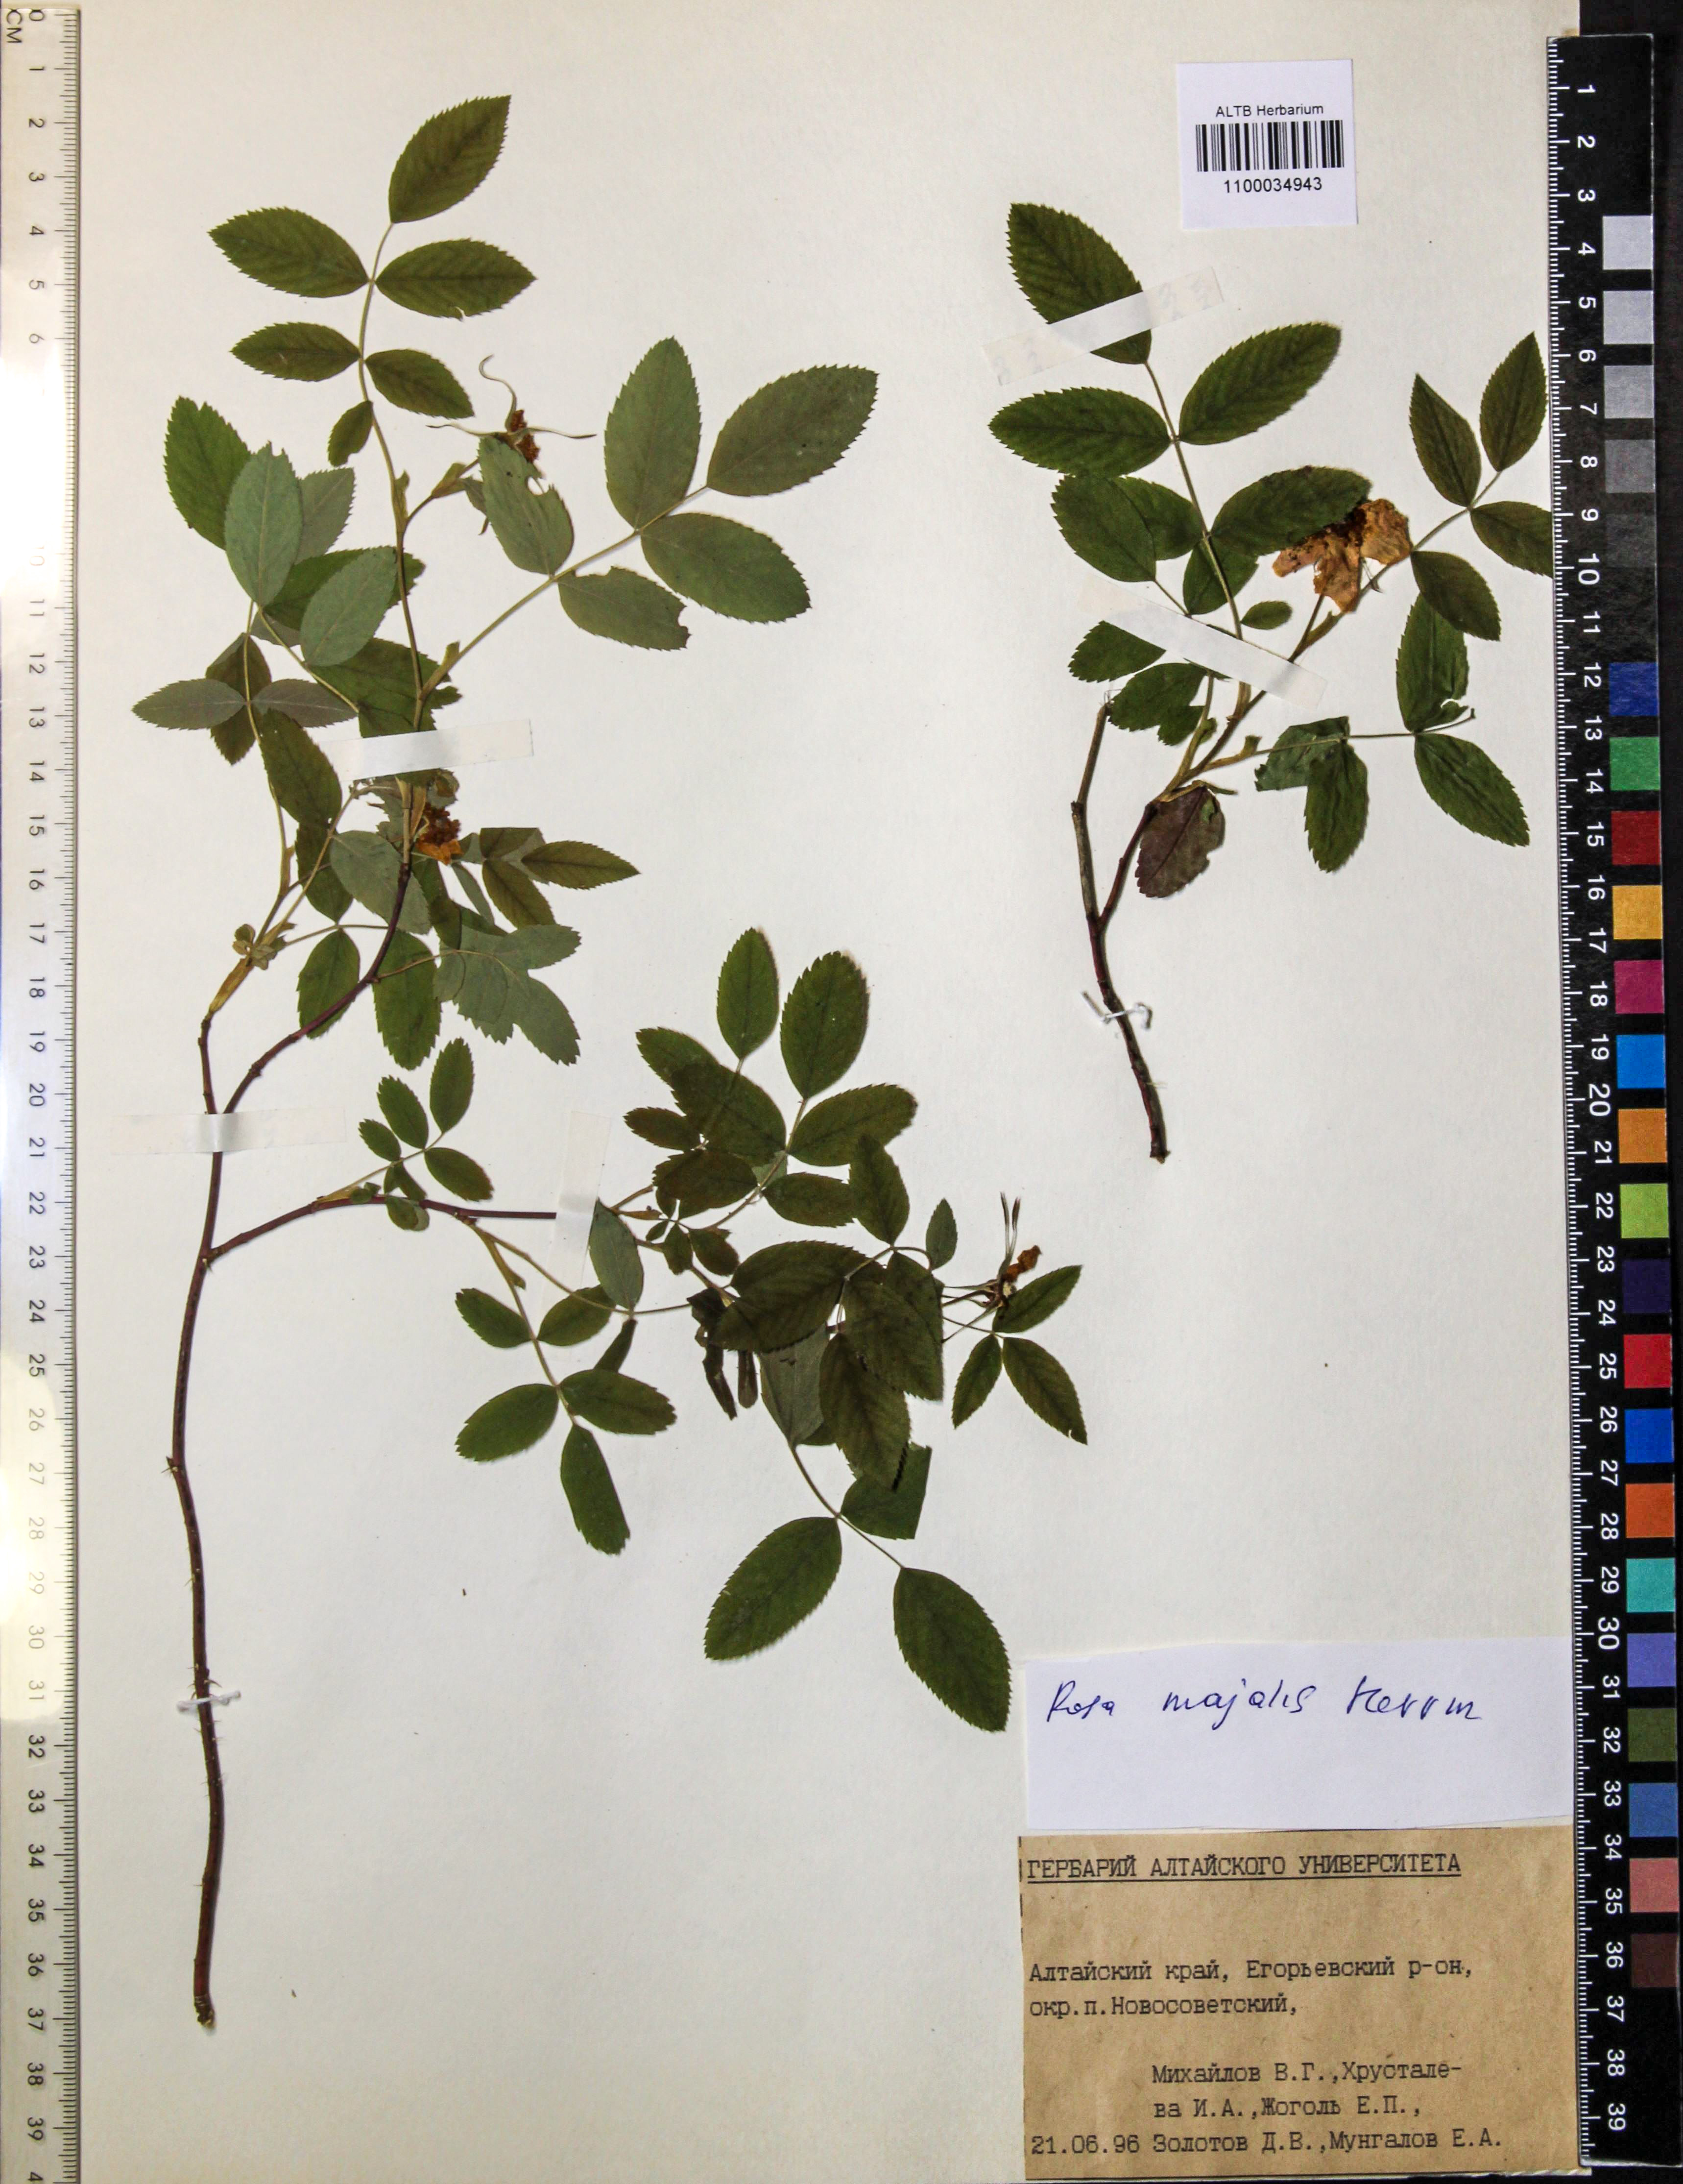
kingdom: Plantae
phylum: Tracheophyta
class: Magnoliopsida
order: Rosales
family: Rosaceae
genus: Rosa
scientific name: Rosa majalis
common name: Cinnamon rose
